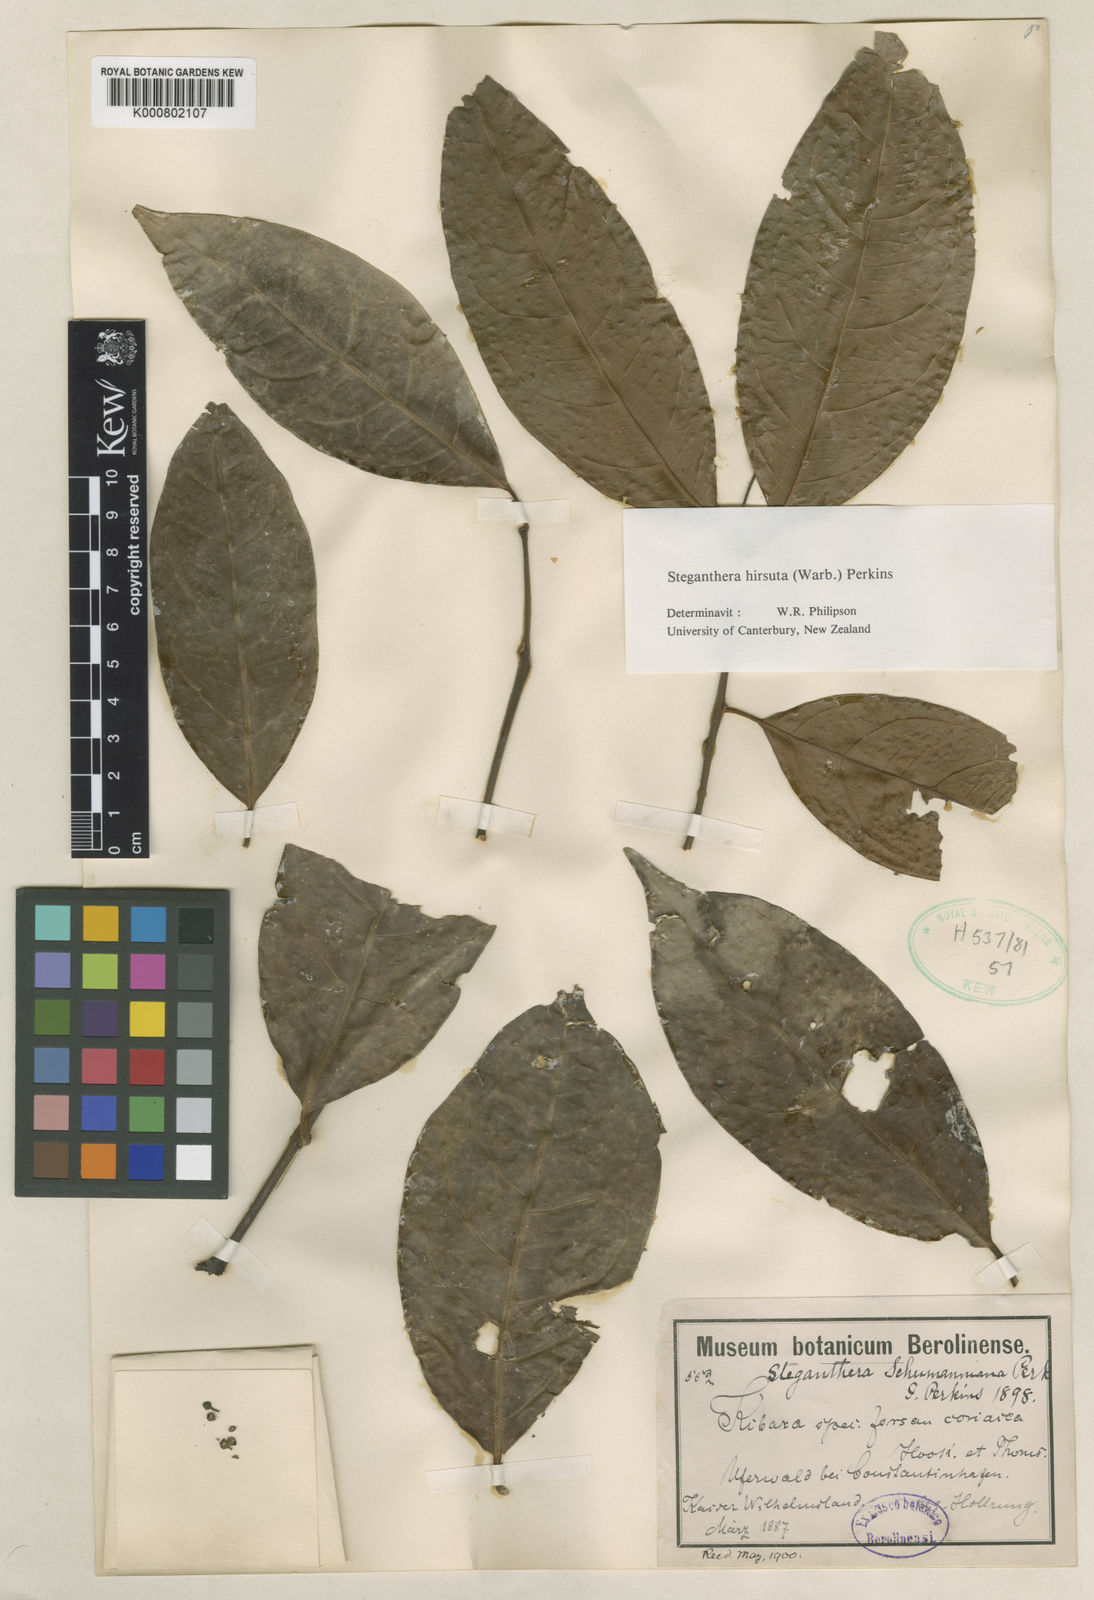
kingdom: Plantae
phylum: Tracheophyta
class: Magnoliopsida
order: Laurales
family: Monimiaceae
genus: Steganthera
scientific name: Steganthera hirsuta
